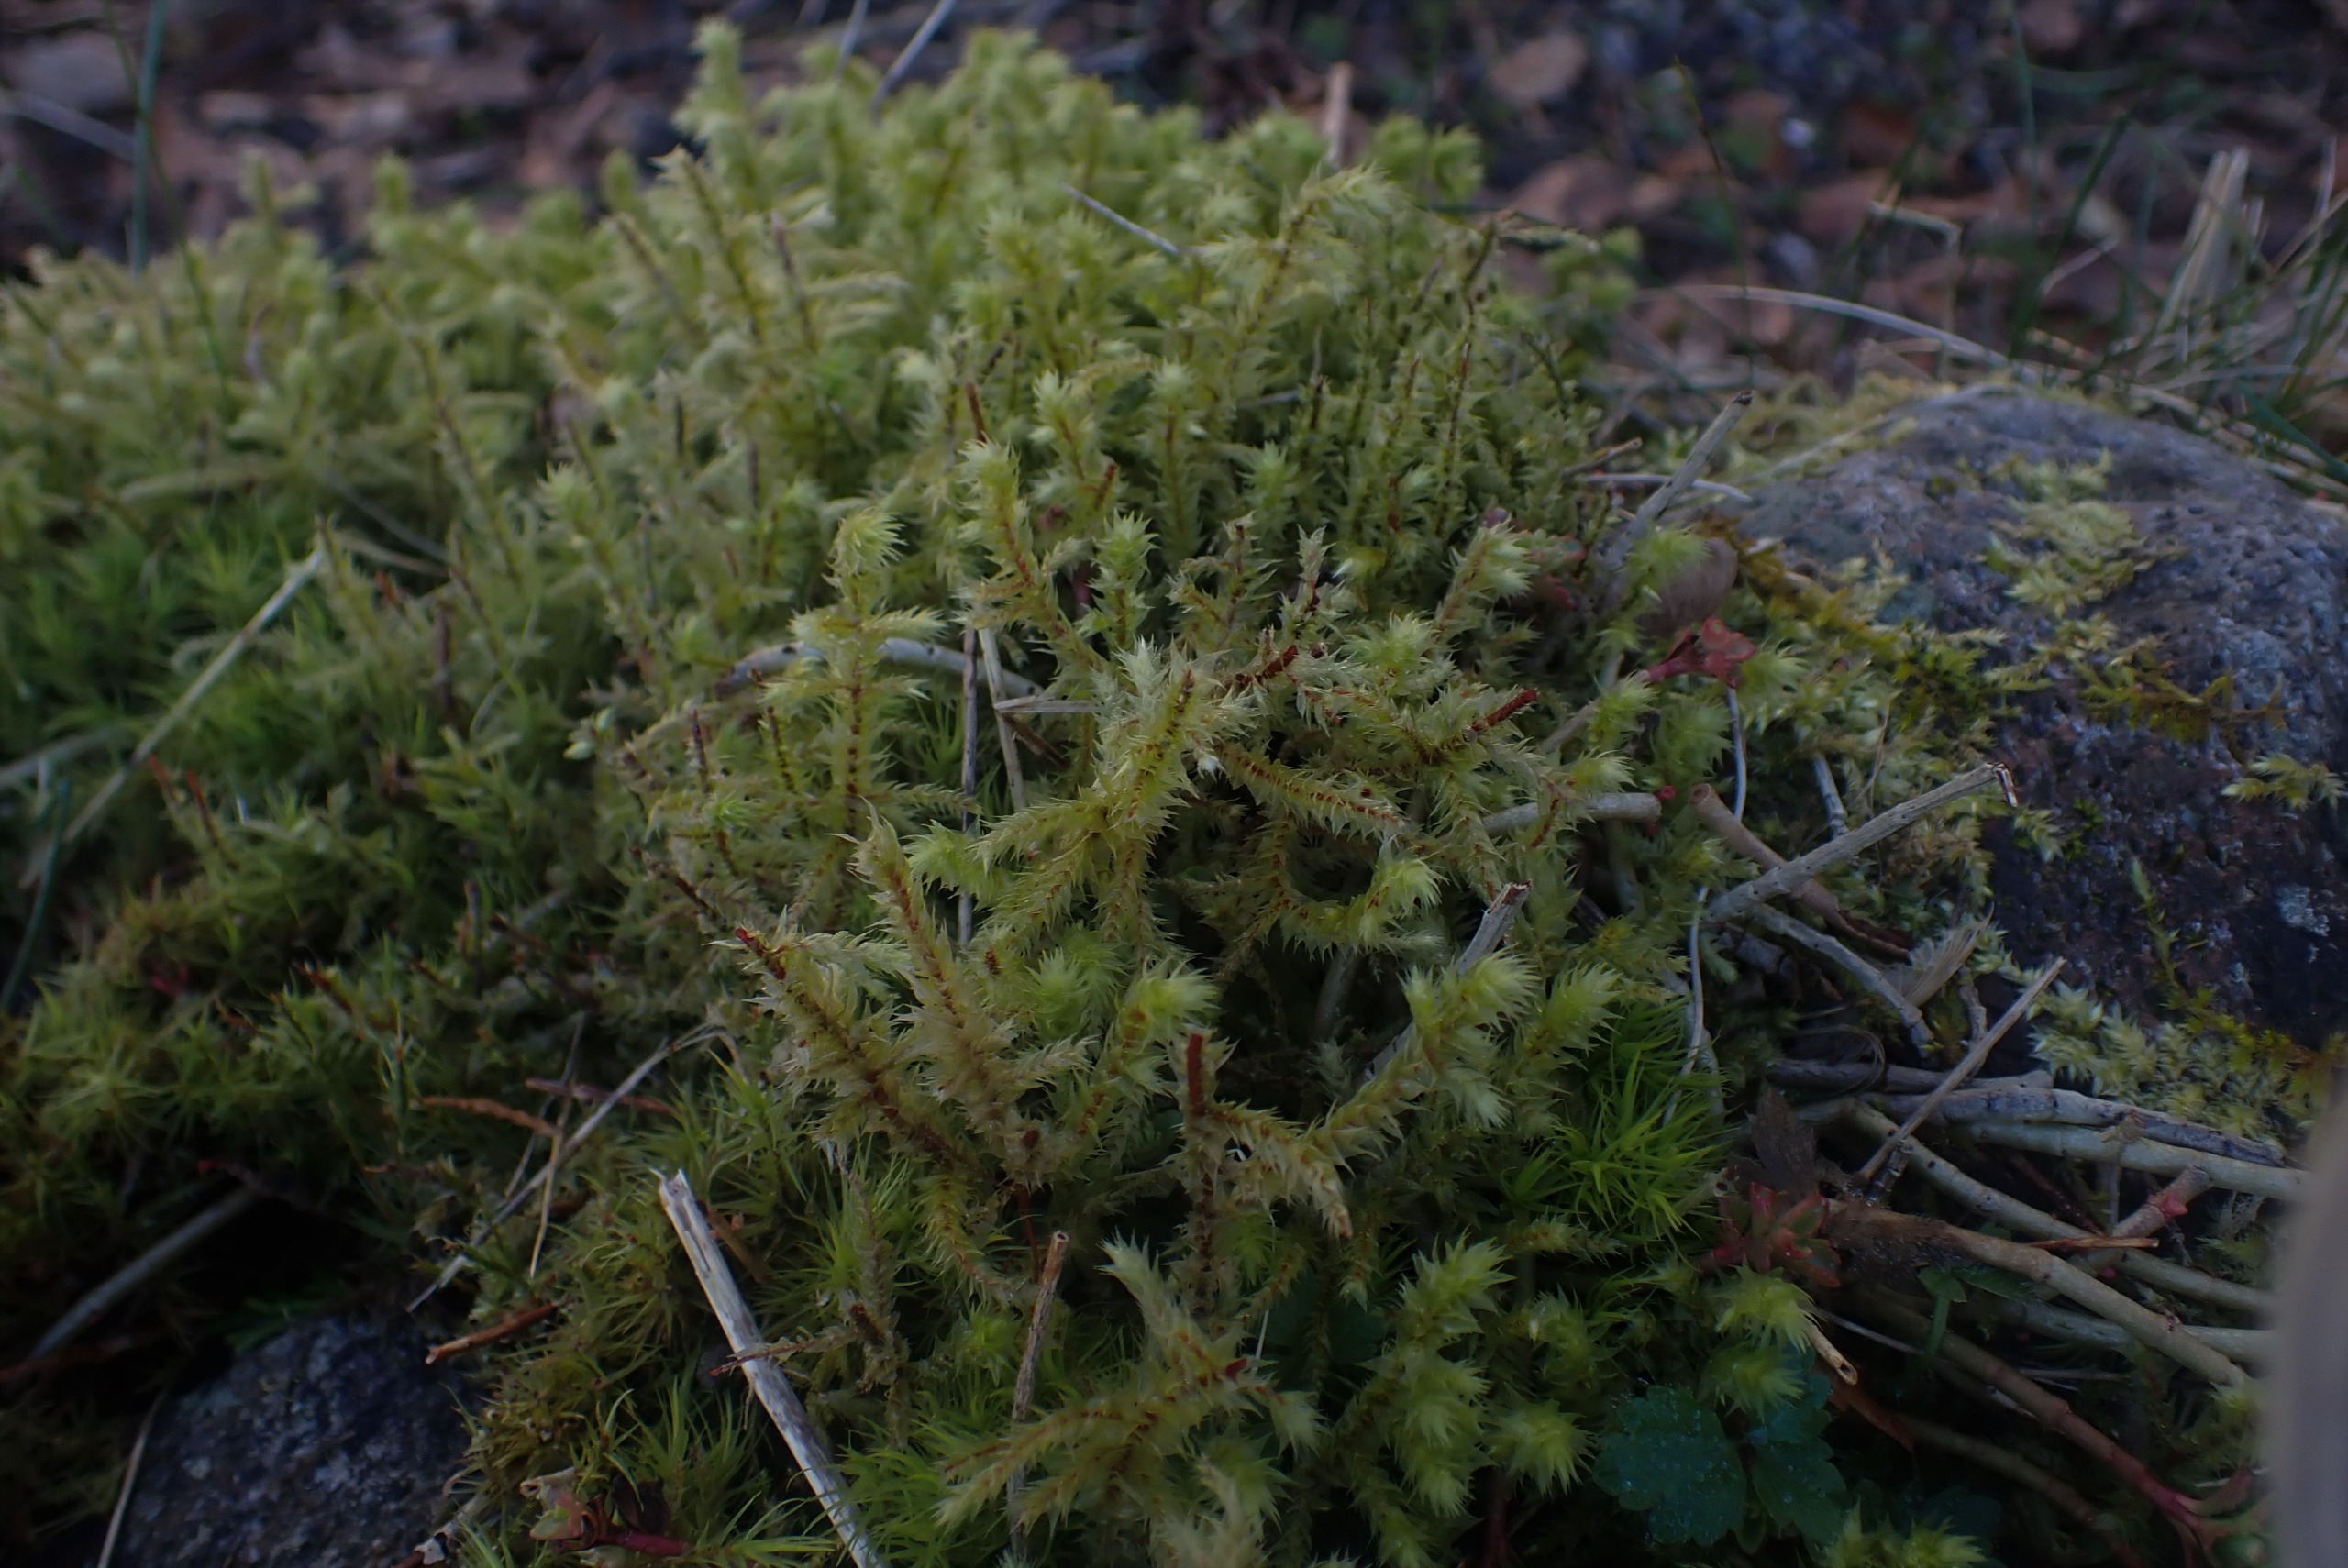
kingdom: Plantae
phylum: Bryophyta
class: Bryopsida
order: Hypnales
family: Hylocomiaceae
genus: Hylocomiadelphus
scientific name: Hylocomiadelphus triquetrus
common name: Stor kransemos
